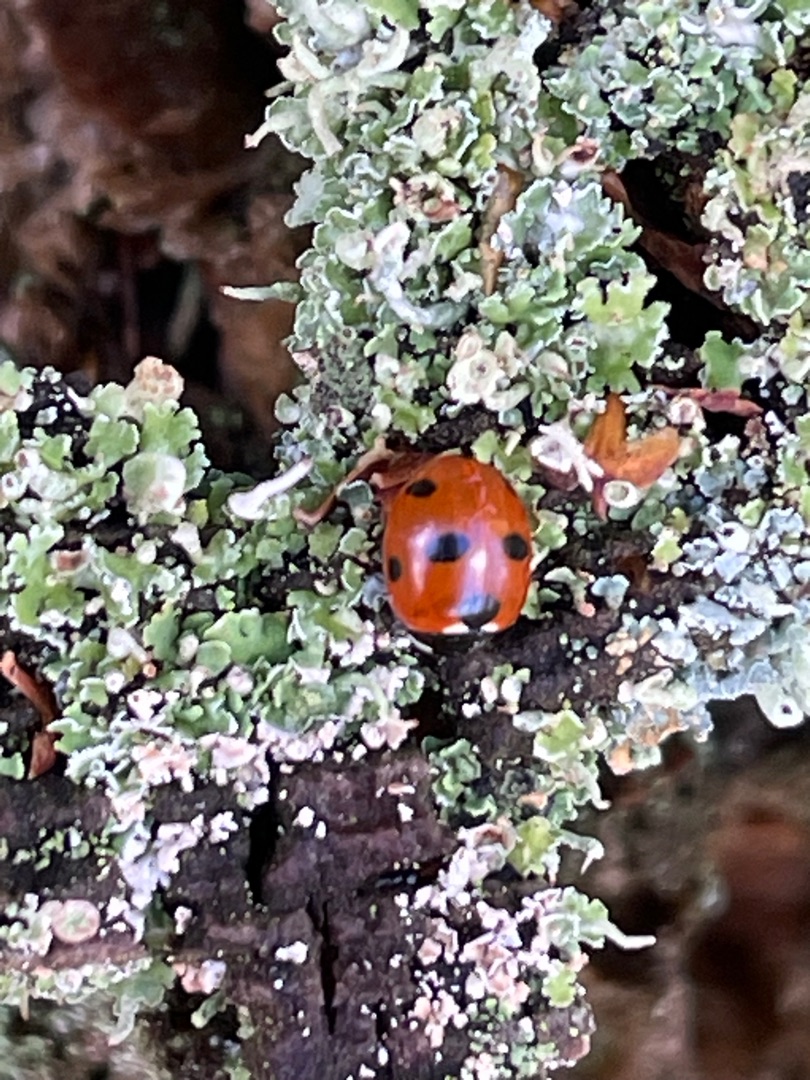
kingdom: Animalia
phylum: Arthropoda
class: Insecta
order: Coleoptera
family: Coccinellidae
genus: Coccinella
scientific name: Coccinella septempunctata
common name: Syvplettet mariehøne
